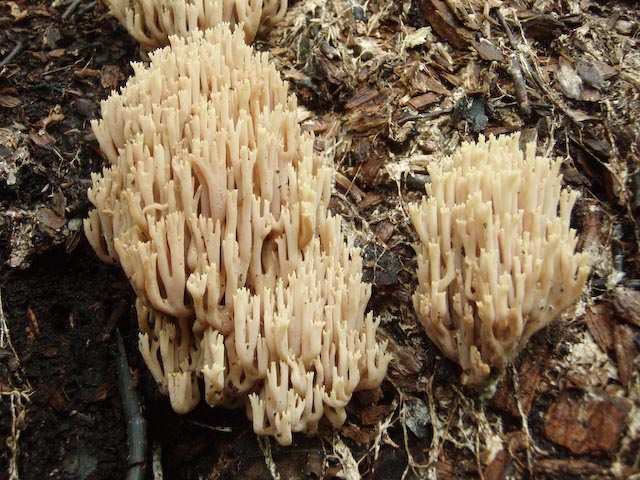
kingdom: Fungi
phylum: Basidiomycota
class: Agaricomycetes
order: Gomphales
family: Gomphaceae
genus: Ramaria
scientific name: Ramaria stricta
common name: rank koralsvamp
